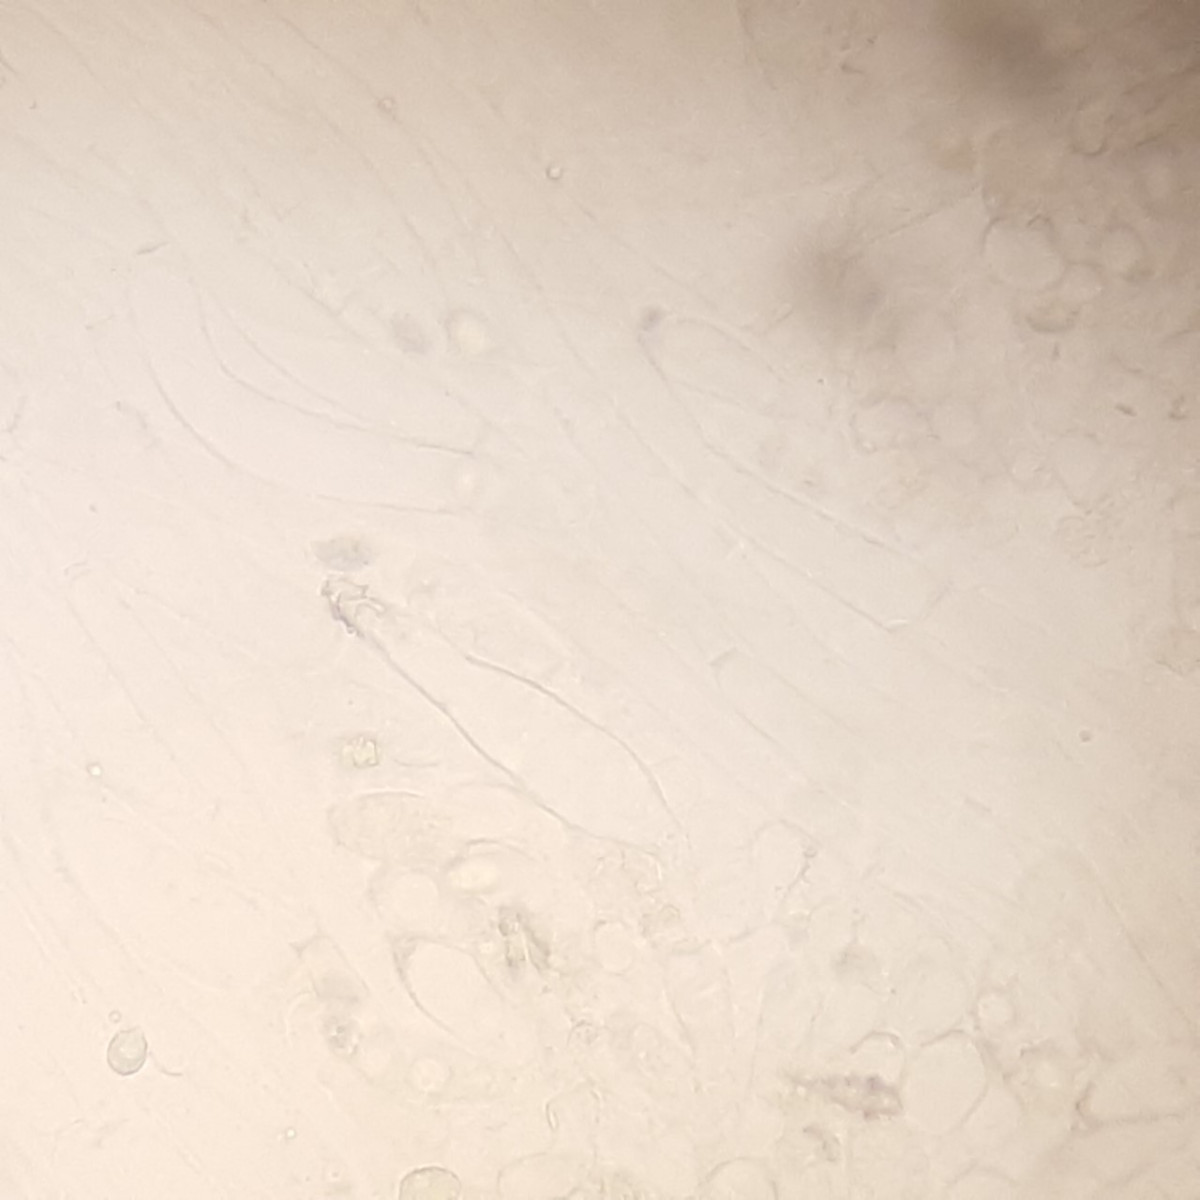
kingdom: Fungi
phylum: Basidiomycota
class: Agaricomycetes
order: Agaricales
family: Tricholomataceae
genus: Melanoleuca
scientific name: Melanoleuca bataillei
